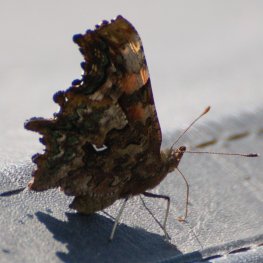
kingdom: Animalia
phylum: Arthropoda
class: Insecta
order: Lepidoptera
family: Nymphalidae
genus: Polygonia
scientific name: Polygonia faunus
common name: Green Comma
